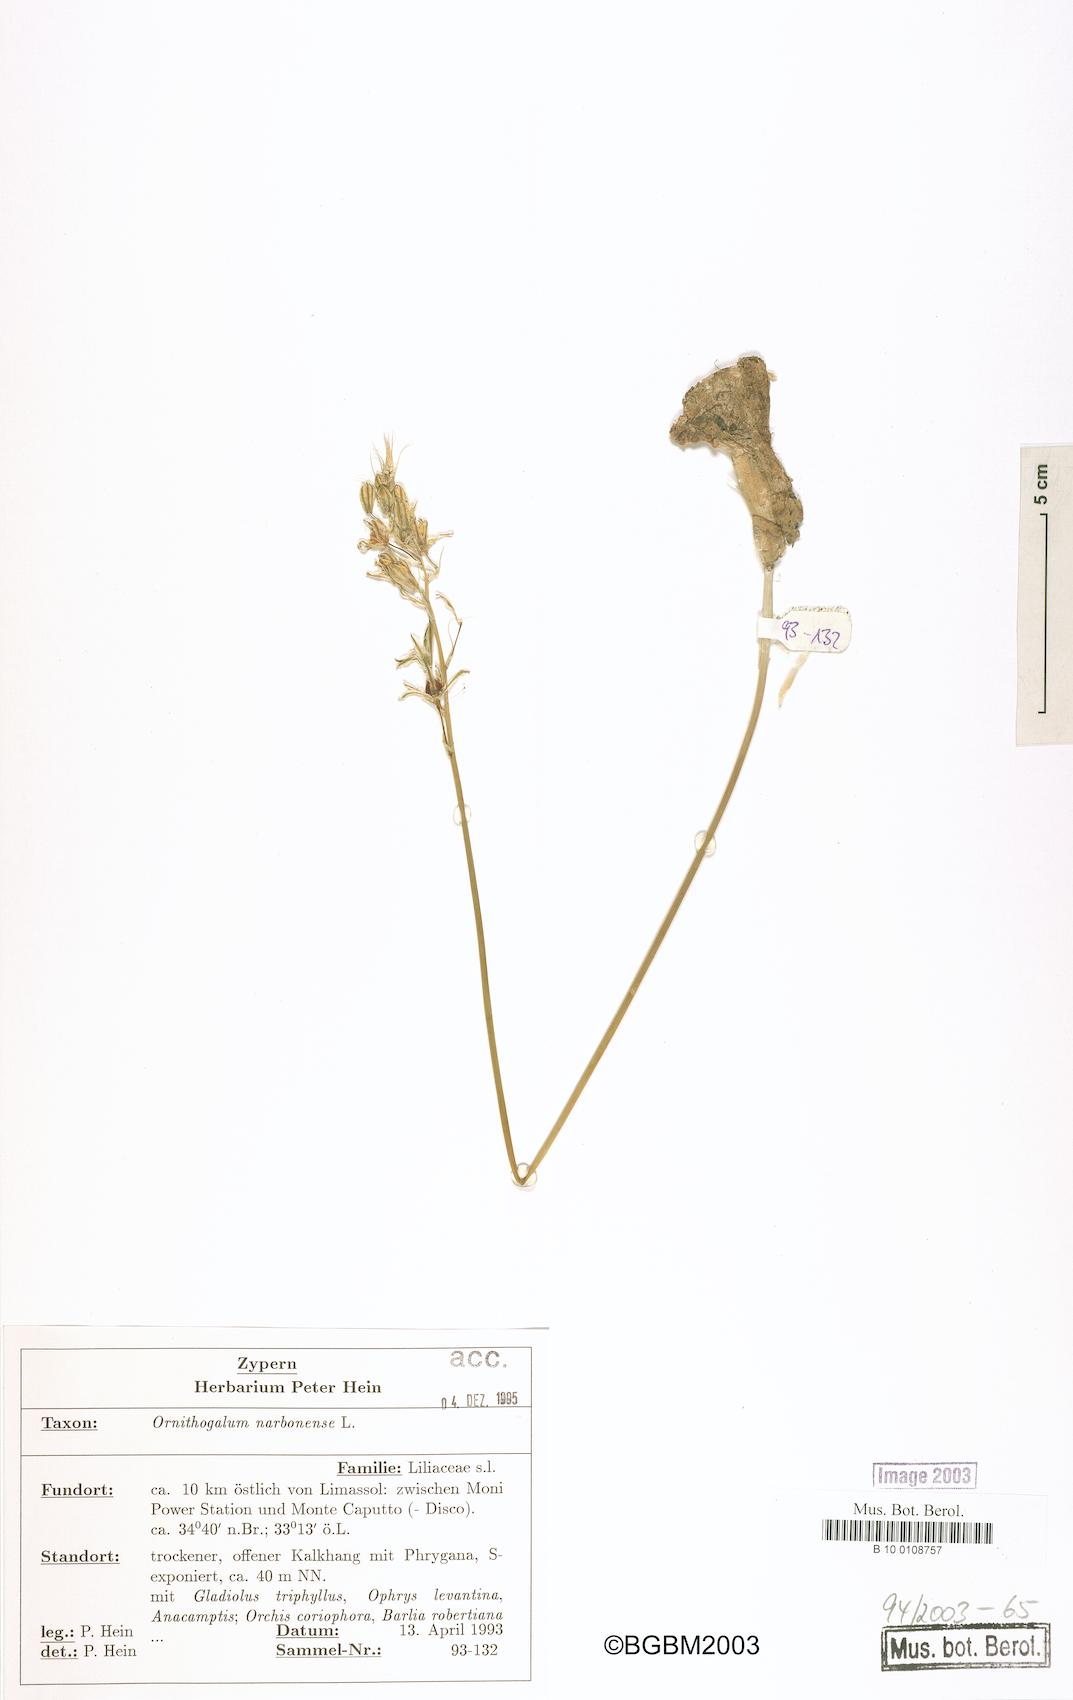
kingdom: Plantae
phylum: Tracheophyta
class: Liliopsida
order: Asparagales
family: Asparagaceae
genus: Ornithogalum
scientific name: Ornithogalum narbonense
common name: Bath-asparagus
